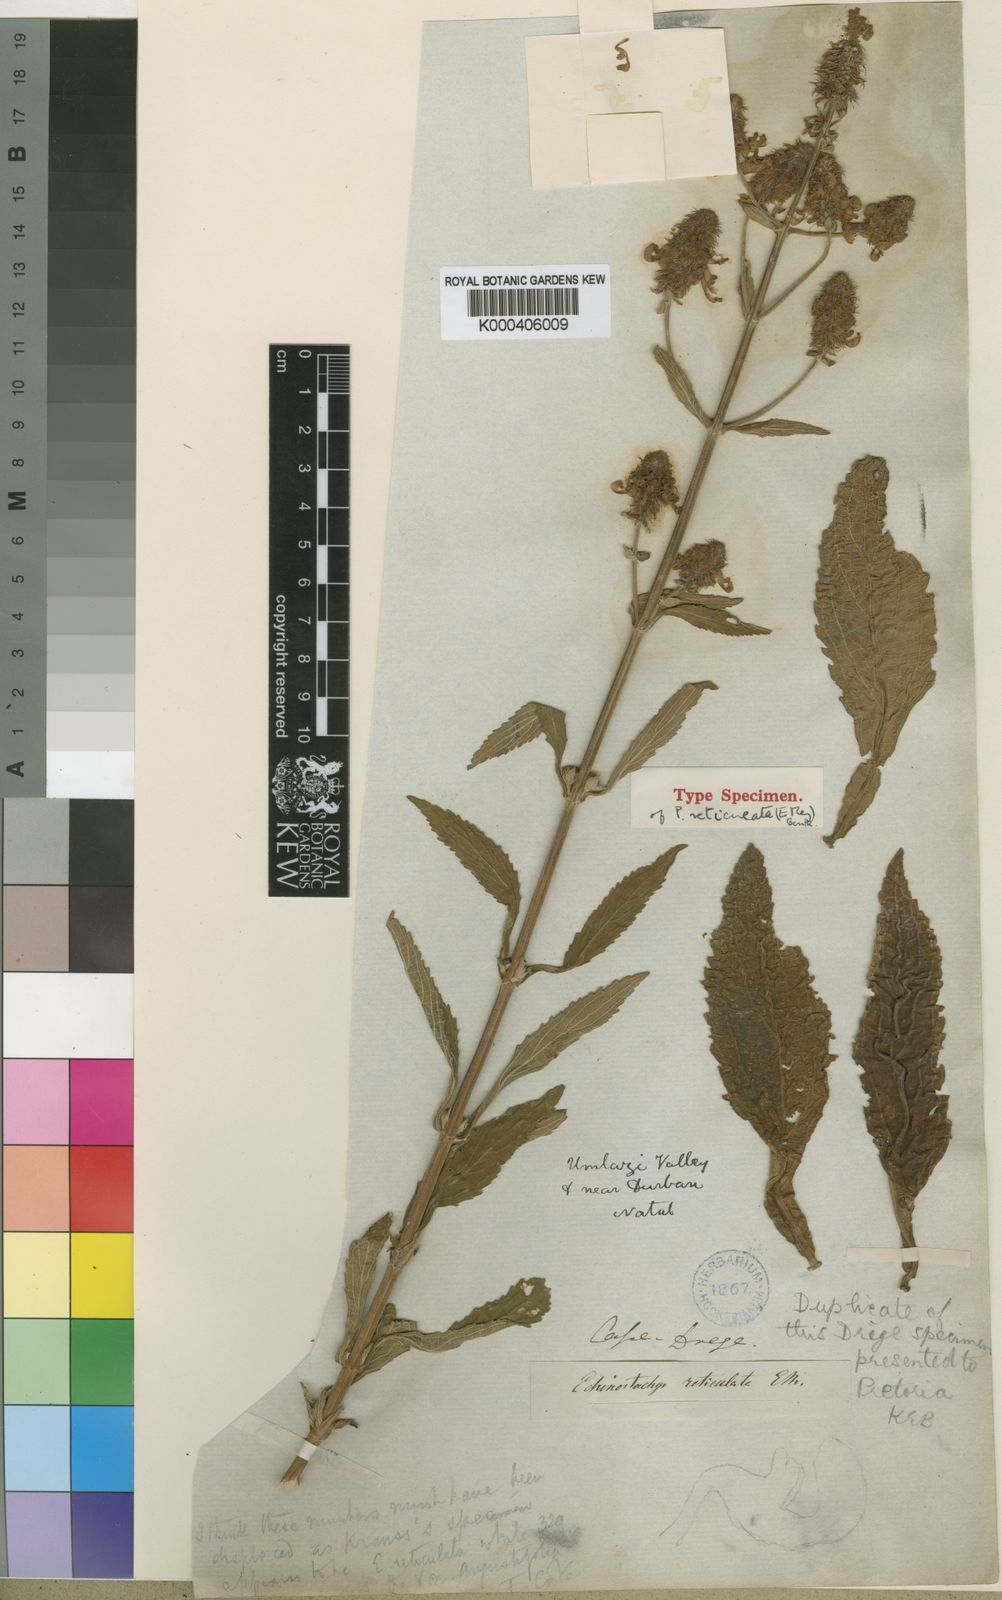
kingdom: Plantae
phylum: Tracheophyta
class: Magnoliopsida
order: Lamiales
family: Lamiaceae
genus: Coleus
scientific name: Coleus kirkii
